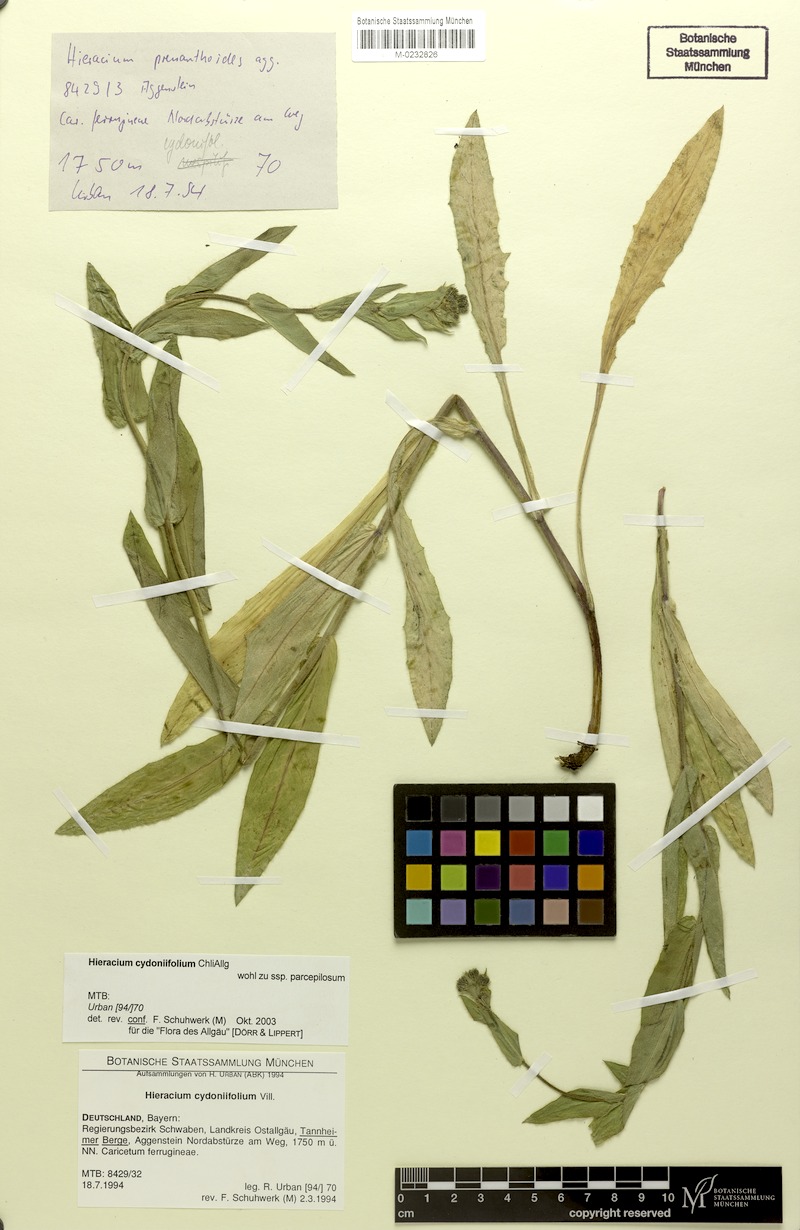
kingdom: Plantae
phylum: Tracheophyta
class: Magnoliopsida
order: Asterales
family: Asteraceae
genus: Hieracium
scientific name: Hieracium cydoniifolium
